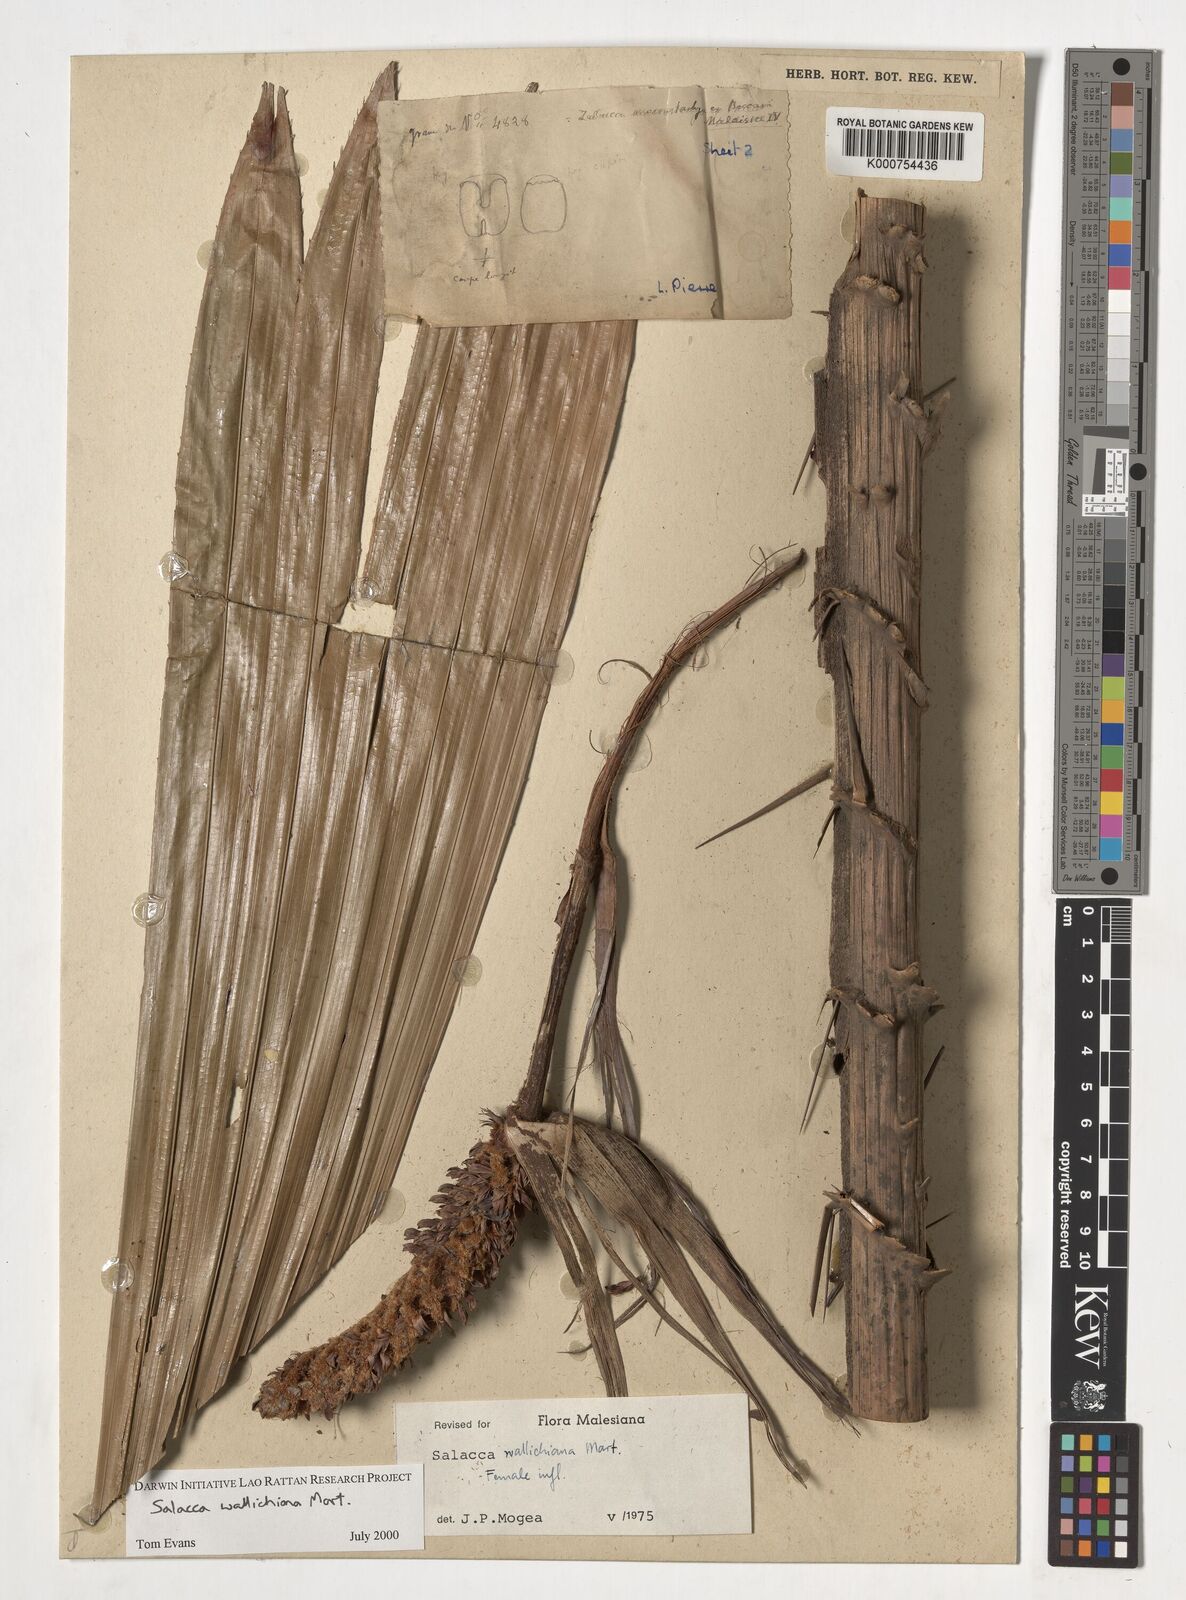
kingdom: Plantae
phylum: Tracheophyta
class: Liliopsida
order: Arecales
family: Arecaceae
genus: Salacca
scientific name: Salacca wallichiana
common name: Rakum palm
